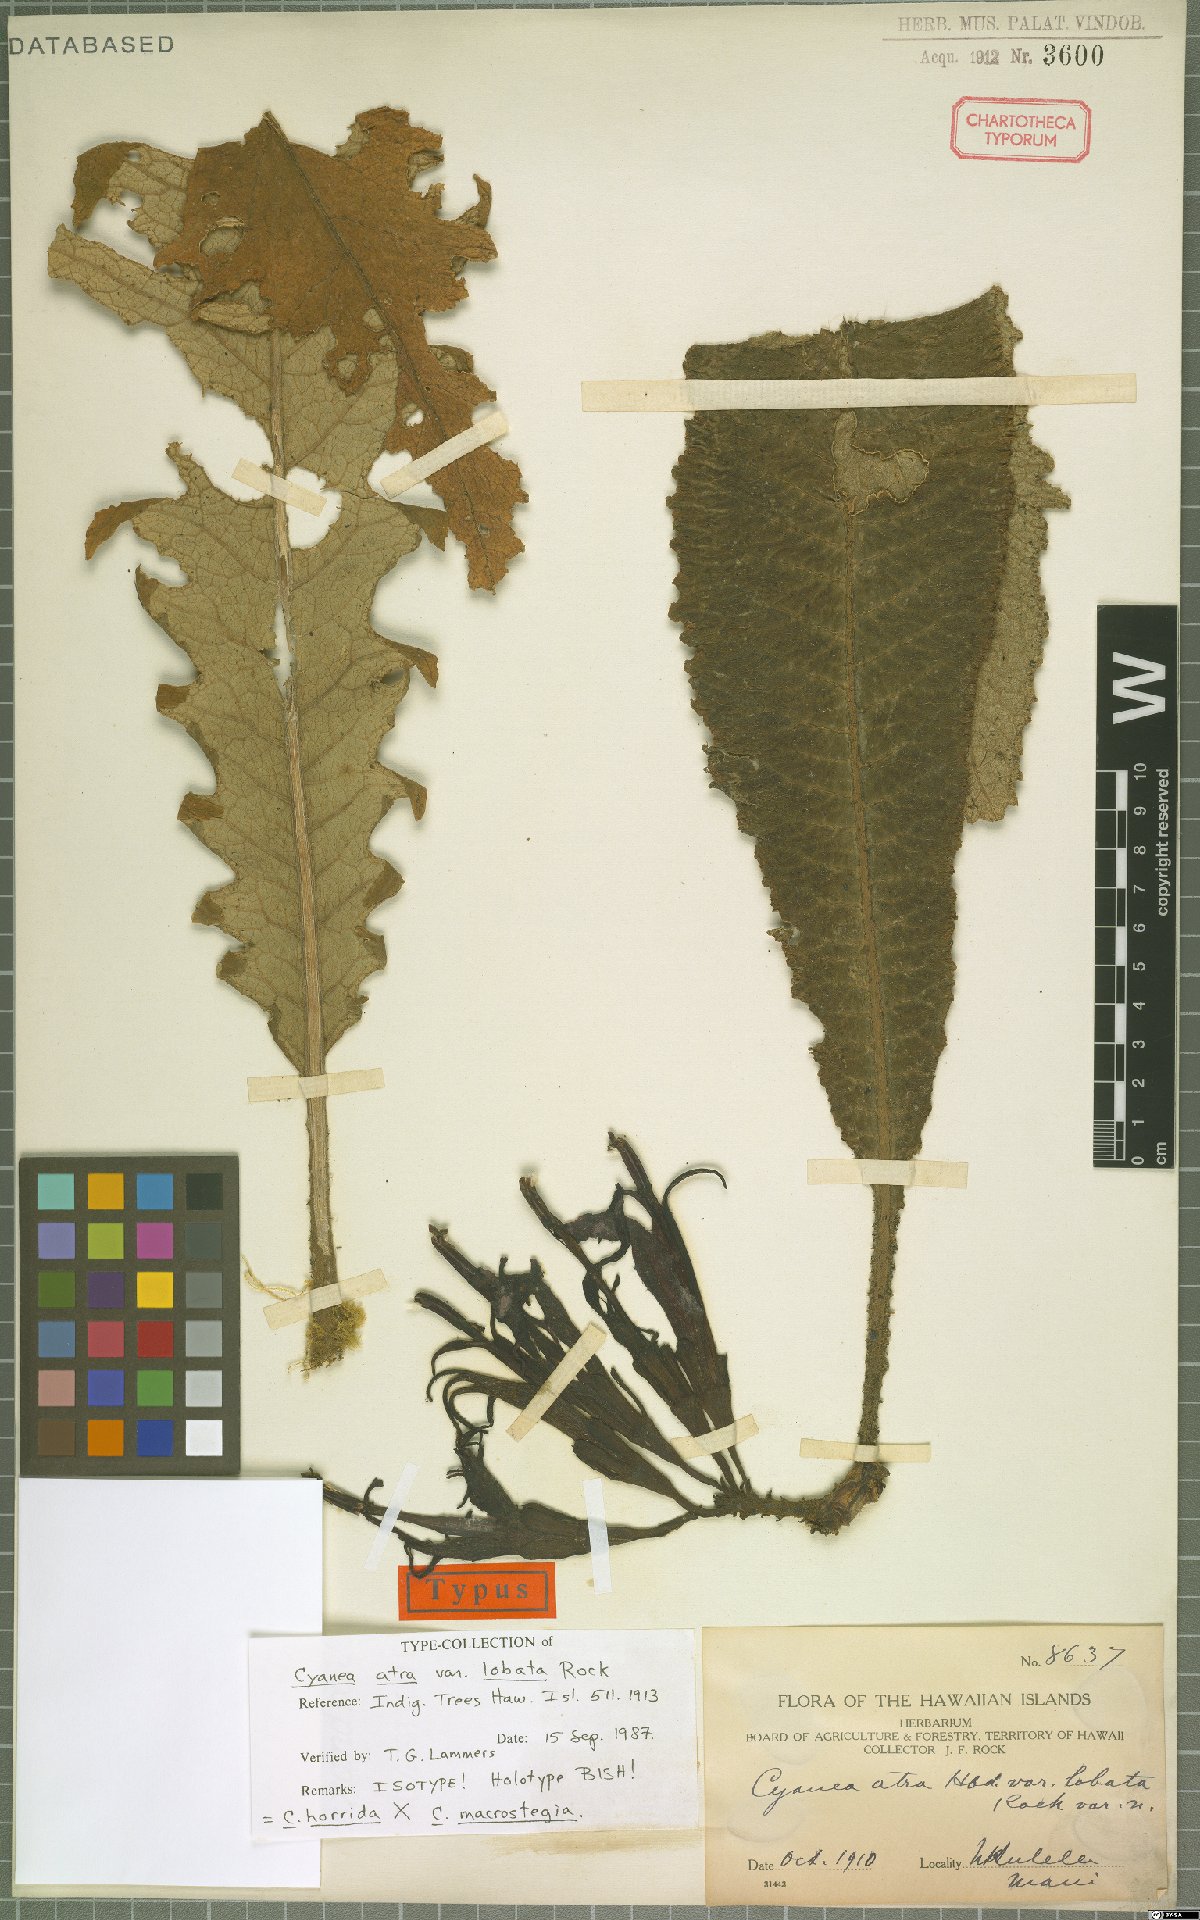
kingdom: Plantae
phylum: Tracheophyta
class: Magnoliopsida
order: Asterales
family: Campanulaceae
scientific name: Campanulaceae
